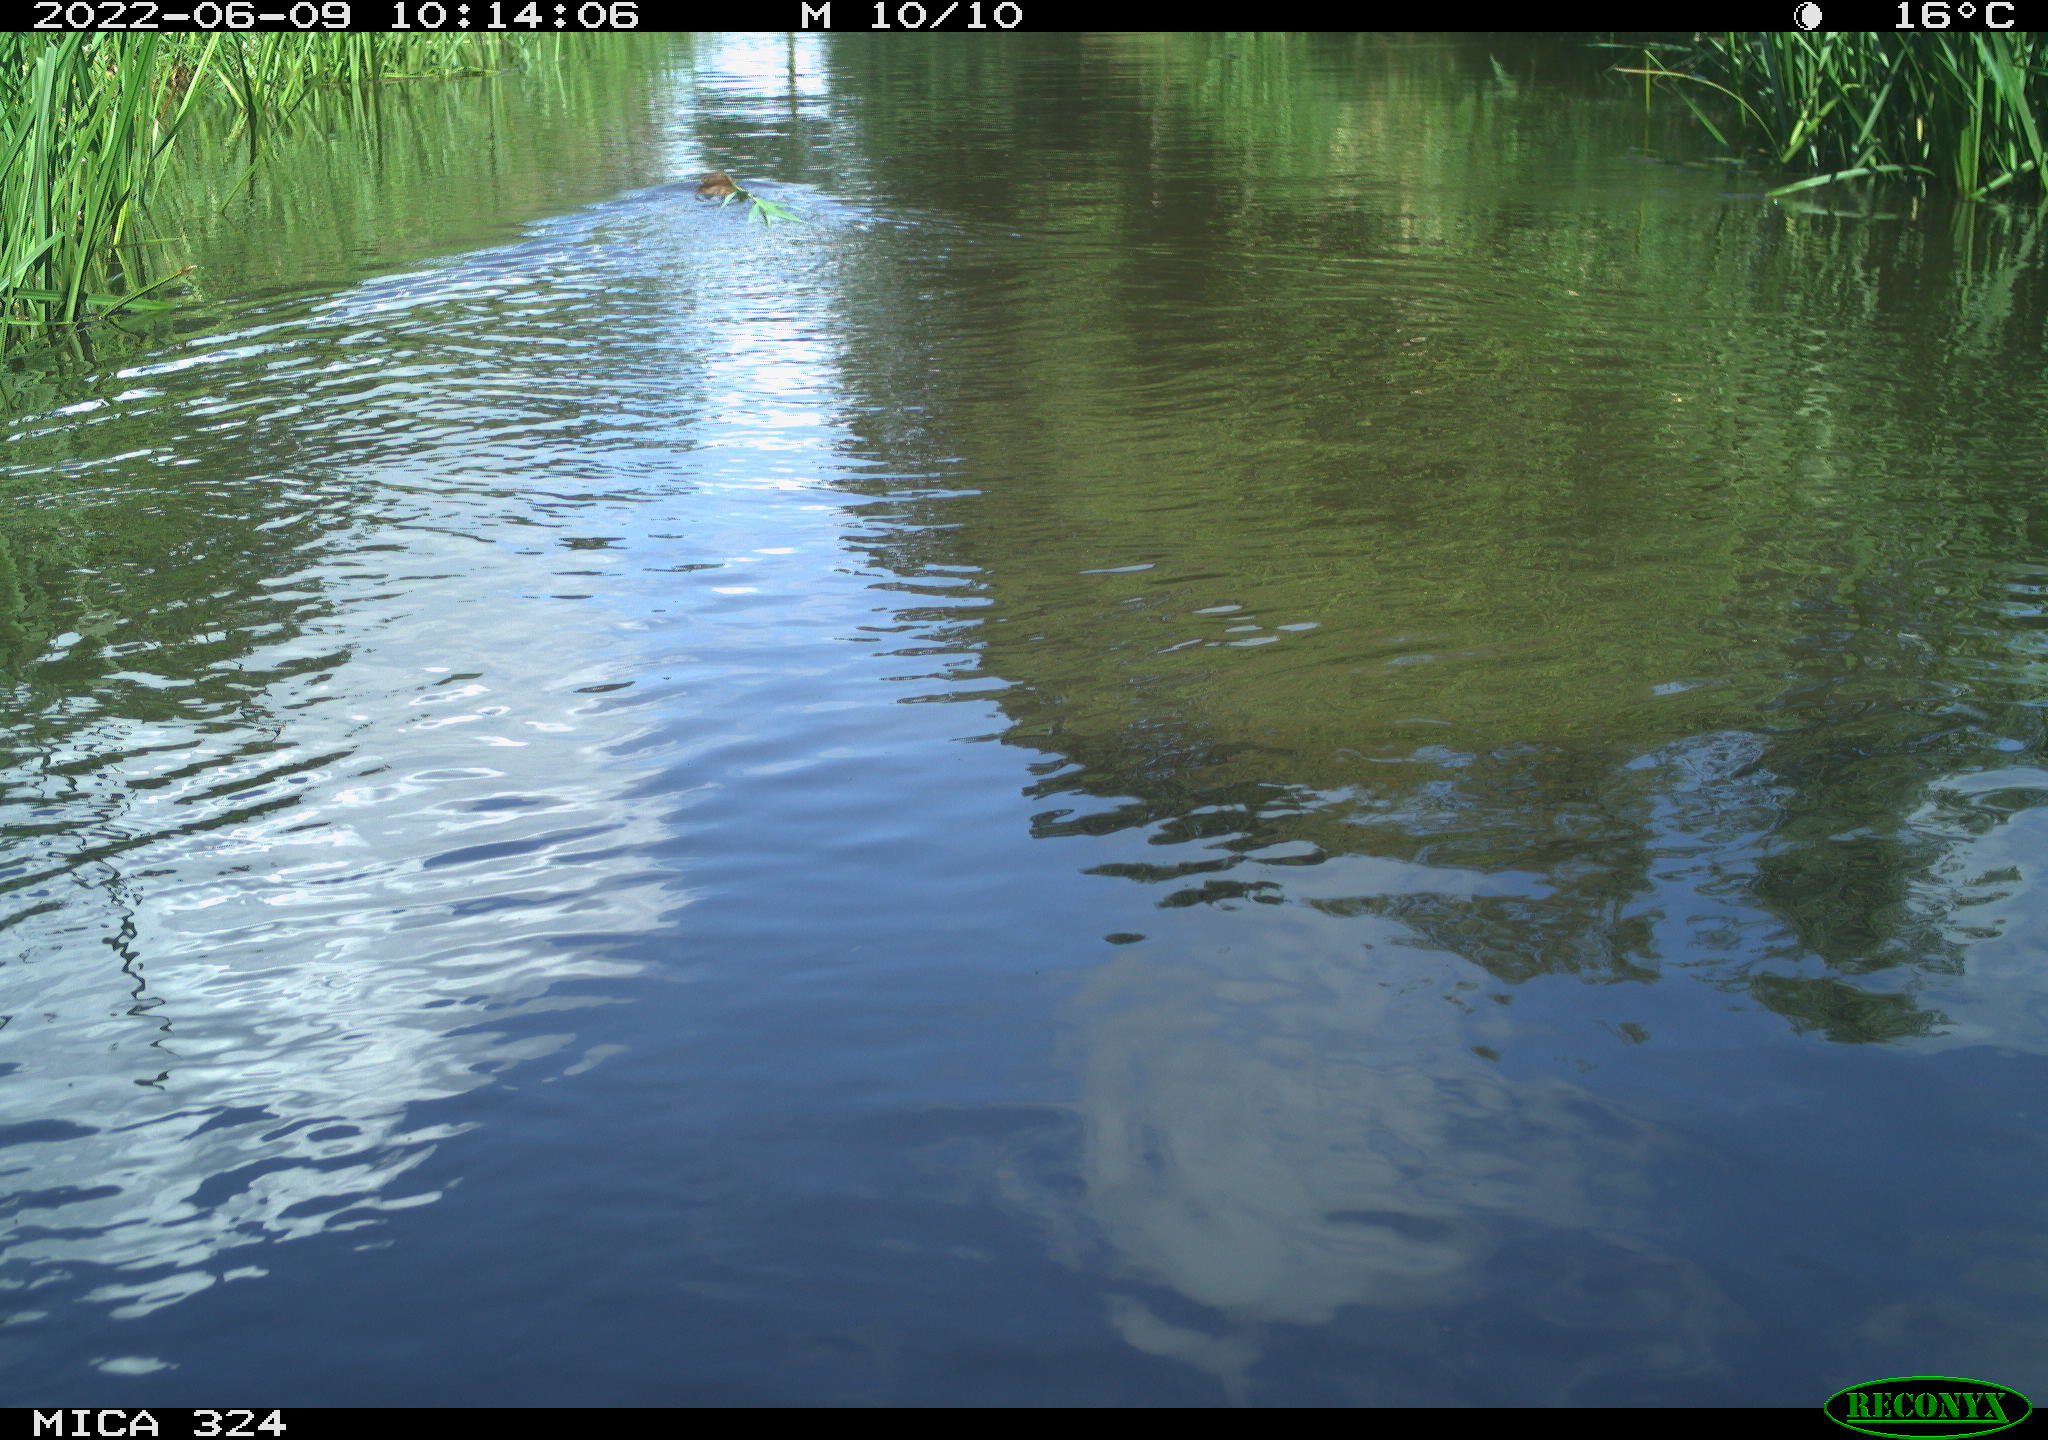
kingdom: Animalia
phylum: Chordata
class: Mammalia
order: Rodentia
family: Cricetidae
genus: Ondatra
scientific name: Ondatra zibethicus
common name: Muskrat
